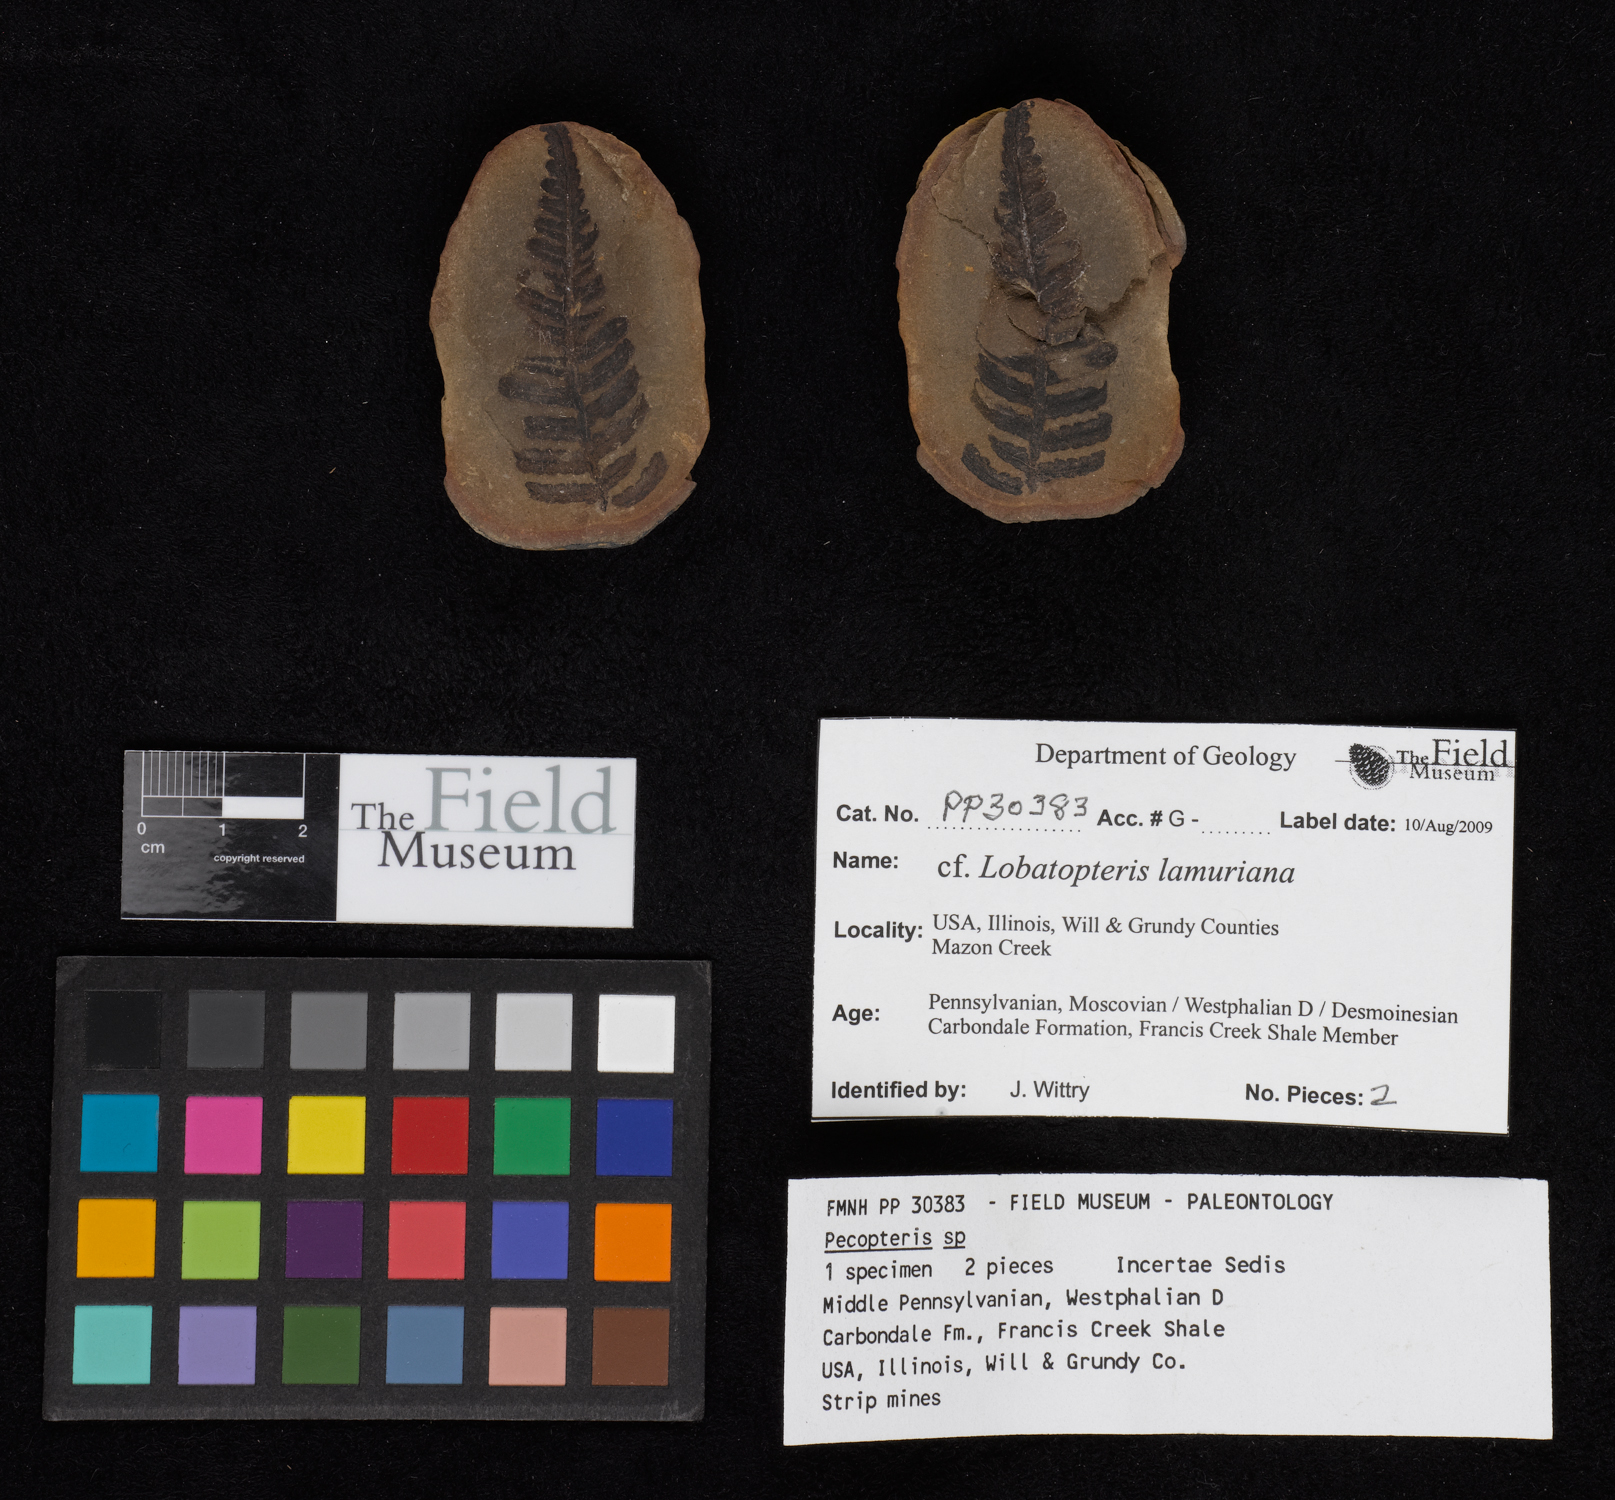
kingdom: Plantae
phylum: Tracheophyta
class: Polypodiopsida
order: Marattiales
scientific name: Marattiales
